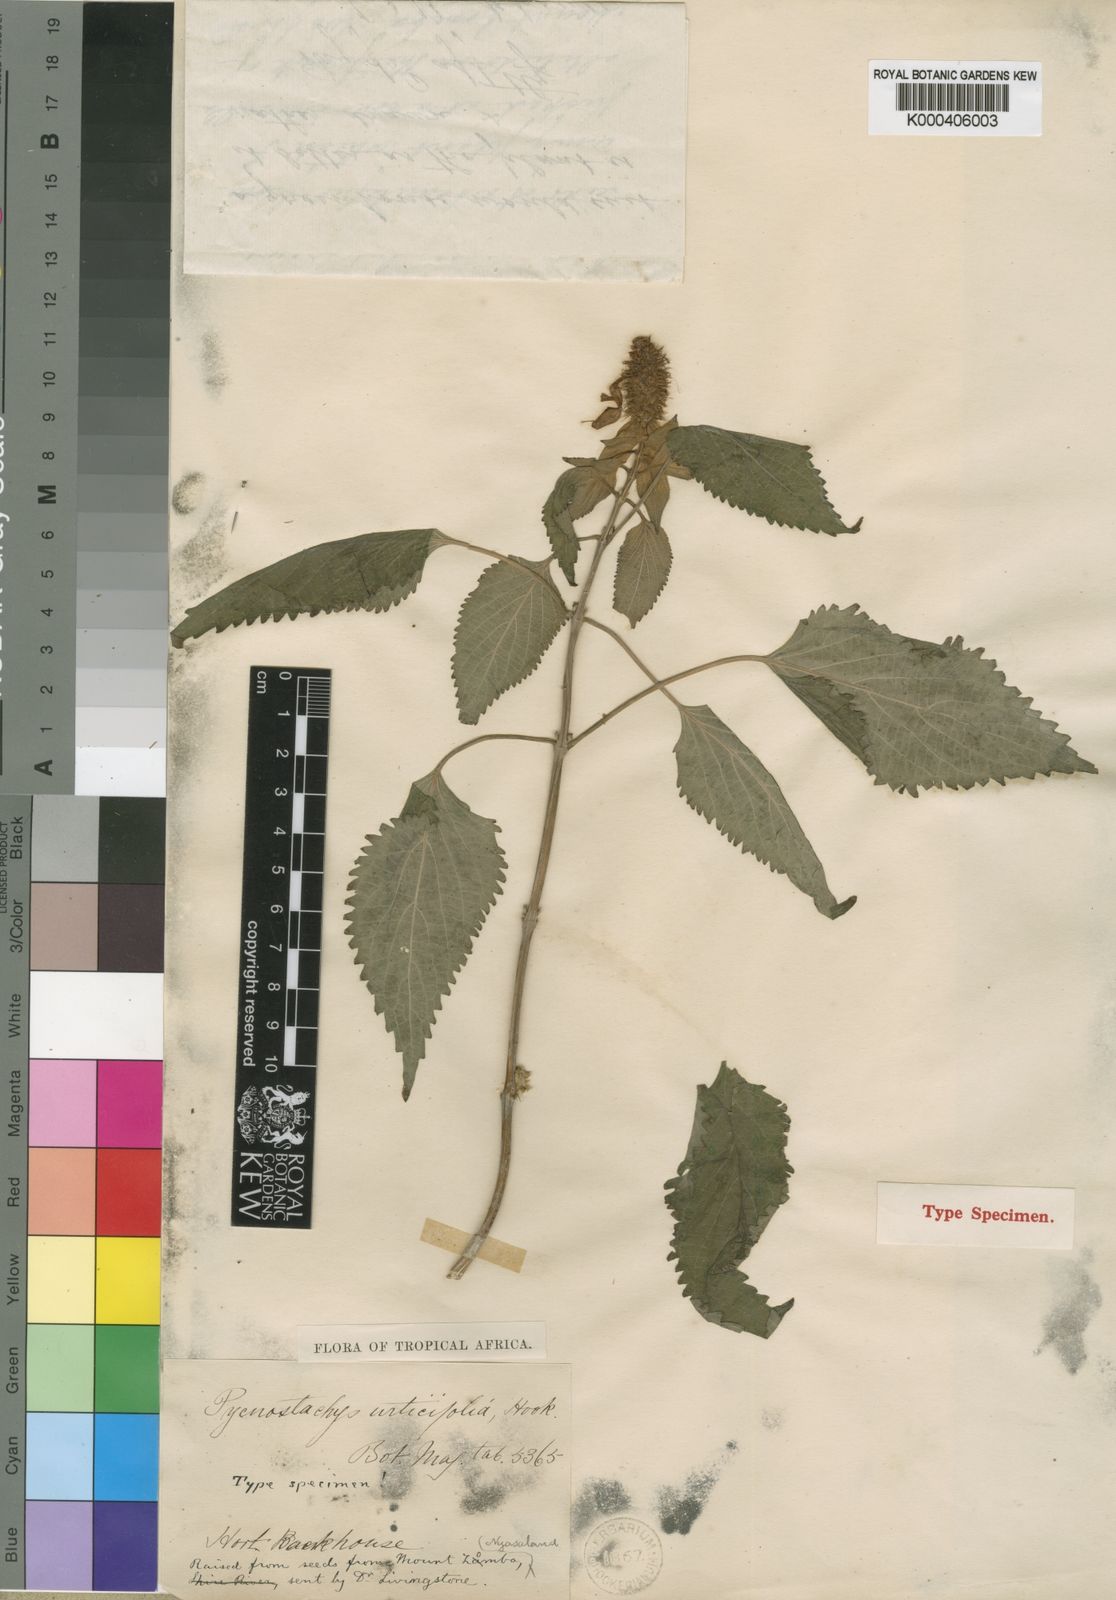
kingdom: Plantae
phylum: Tracheophyta
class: Magnoliopsida
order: Lamiales
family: Lamiaceae
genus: Coleus
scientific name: Coleus livingstonei
